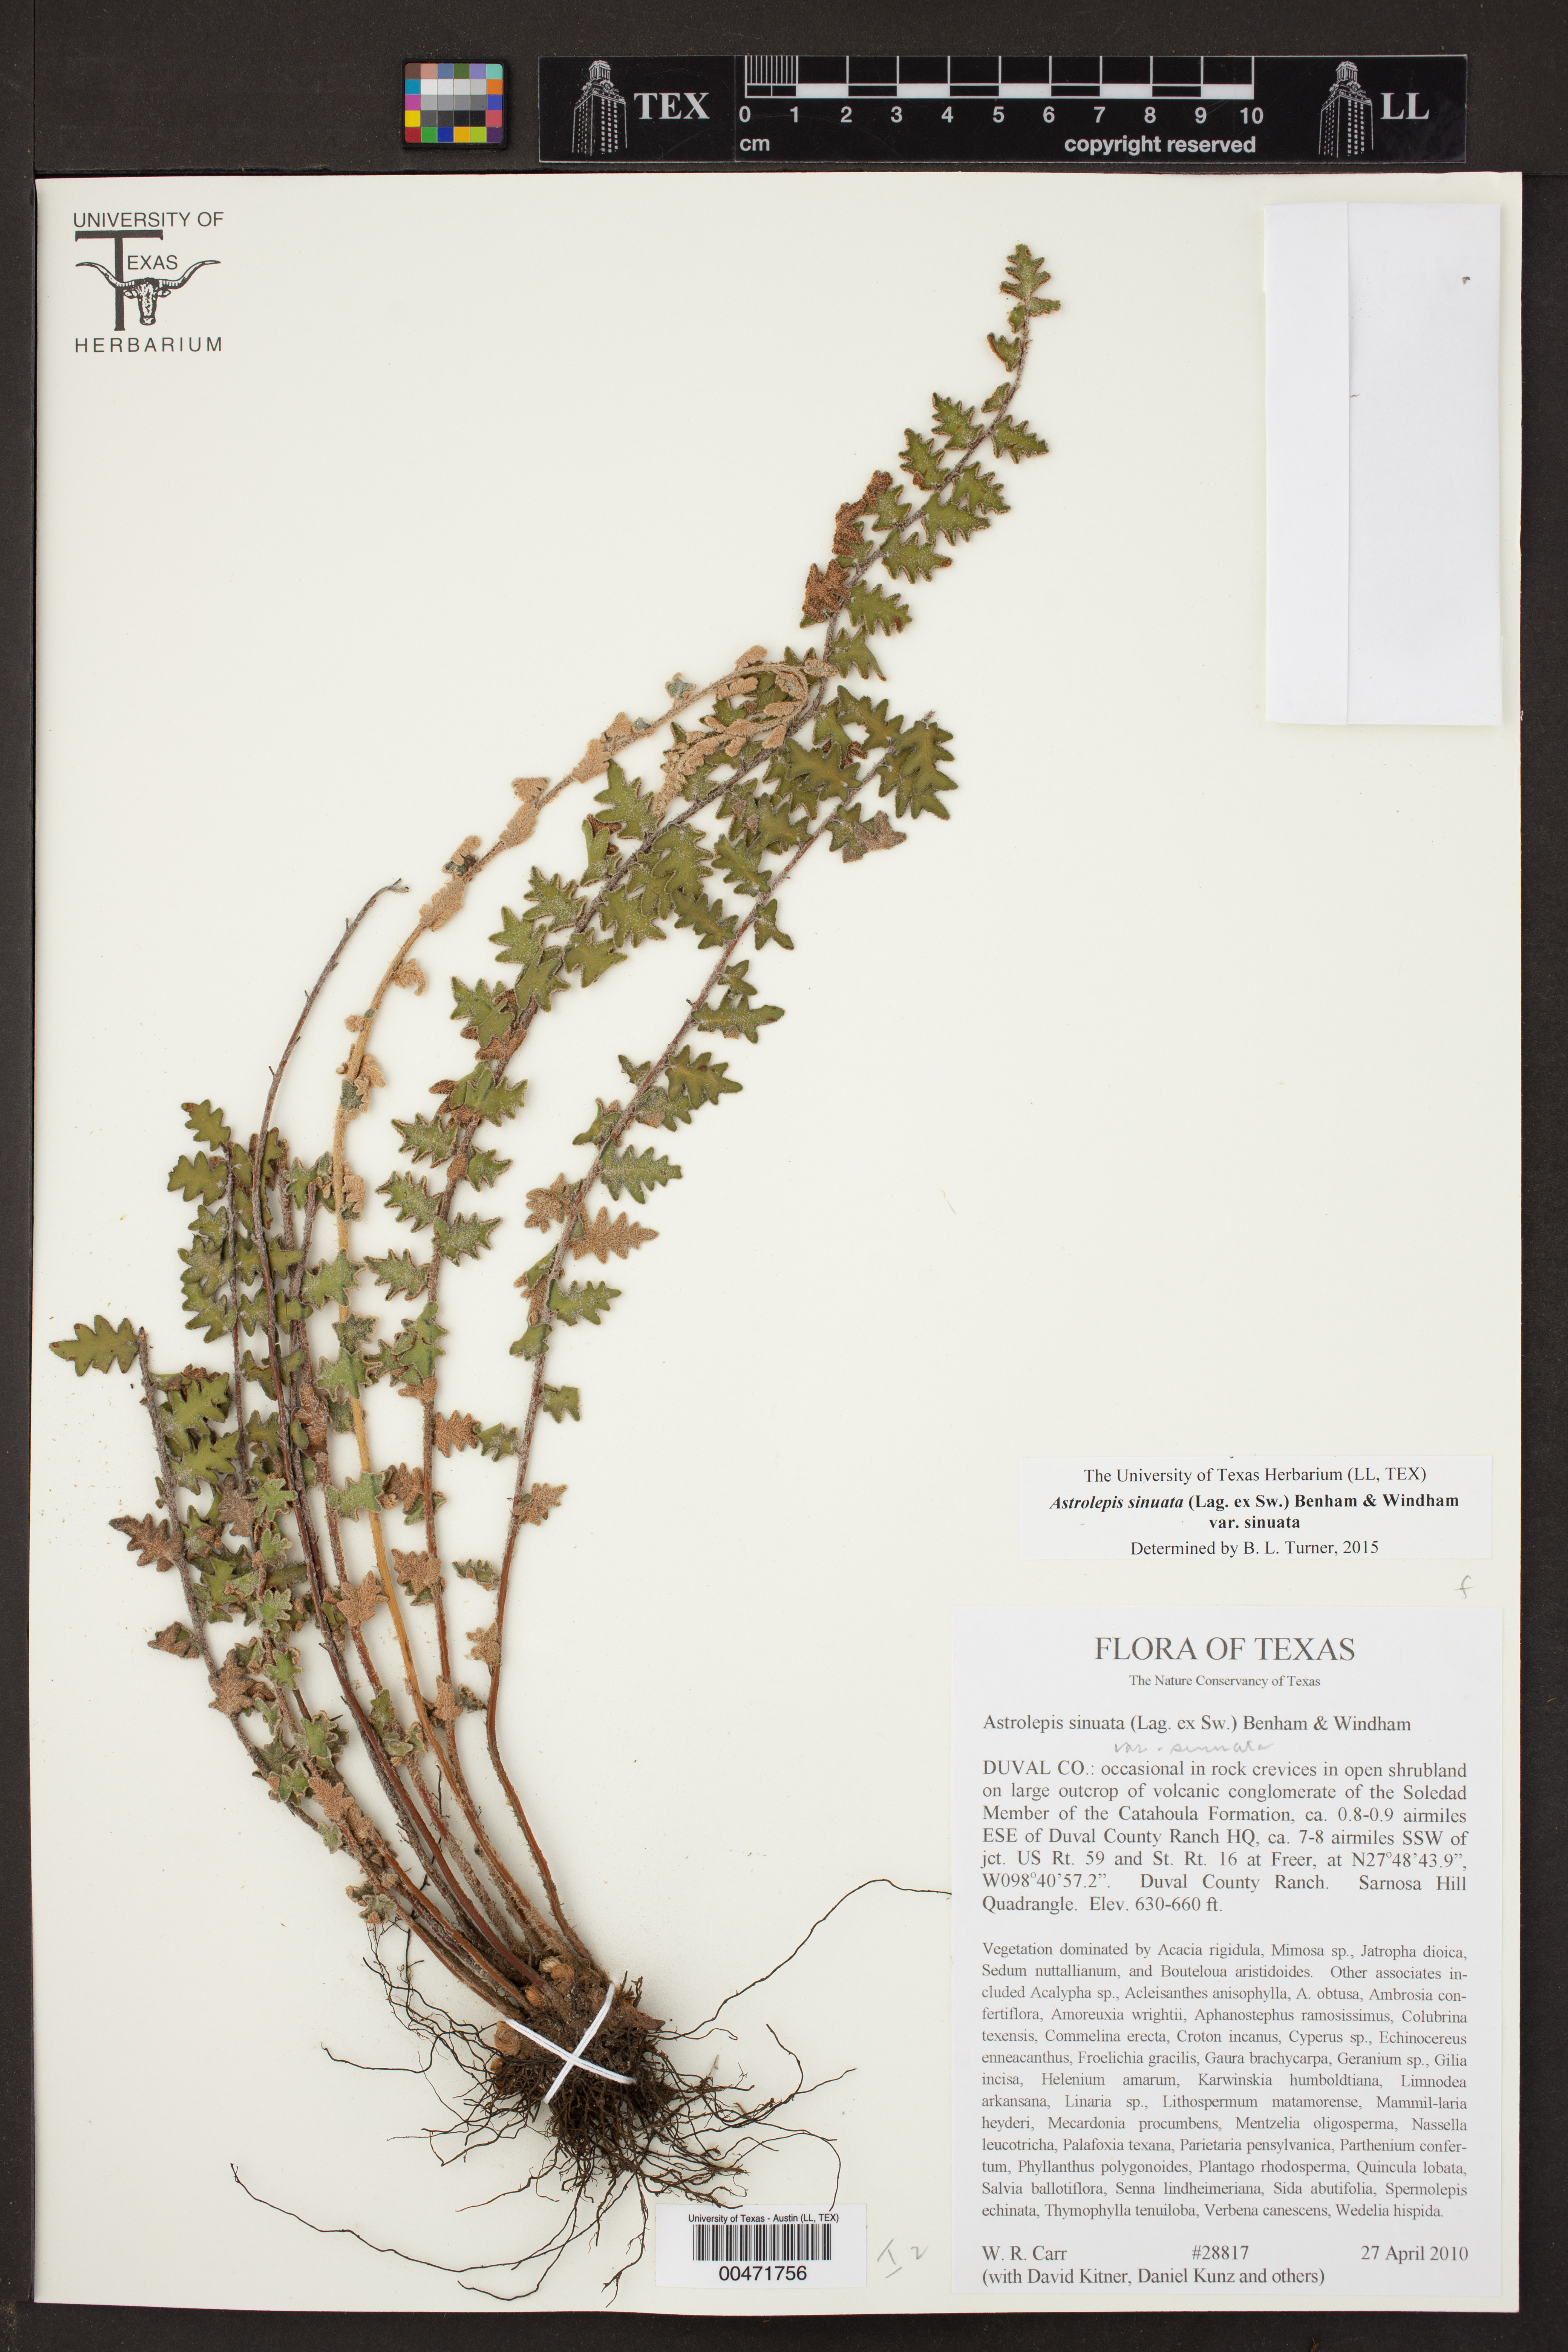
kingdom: Plantae
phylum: Tracheophyta
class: Polypodiopsida
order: Polypodiales
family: Pteridaceae
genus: Astrolepis
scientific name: Astrolepis sinuata
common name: Wavy scaly cloakfern
